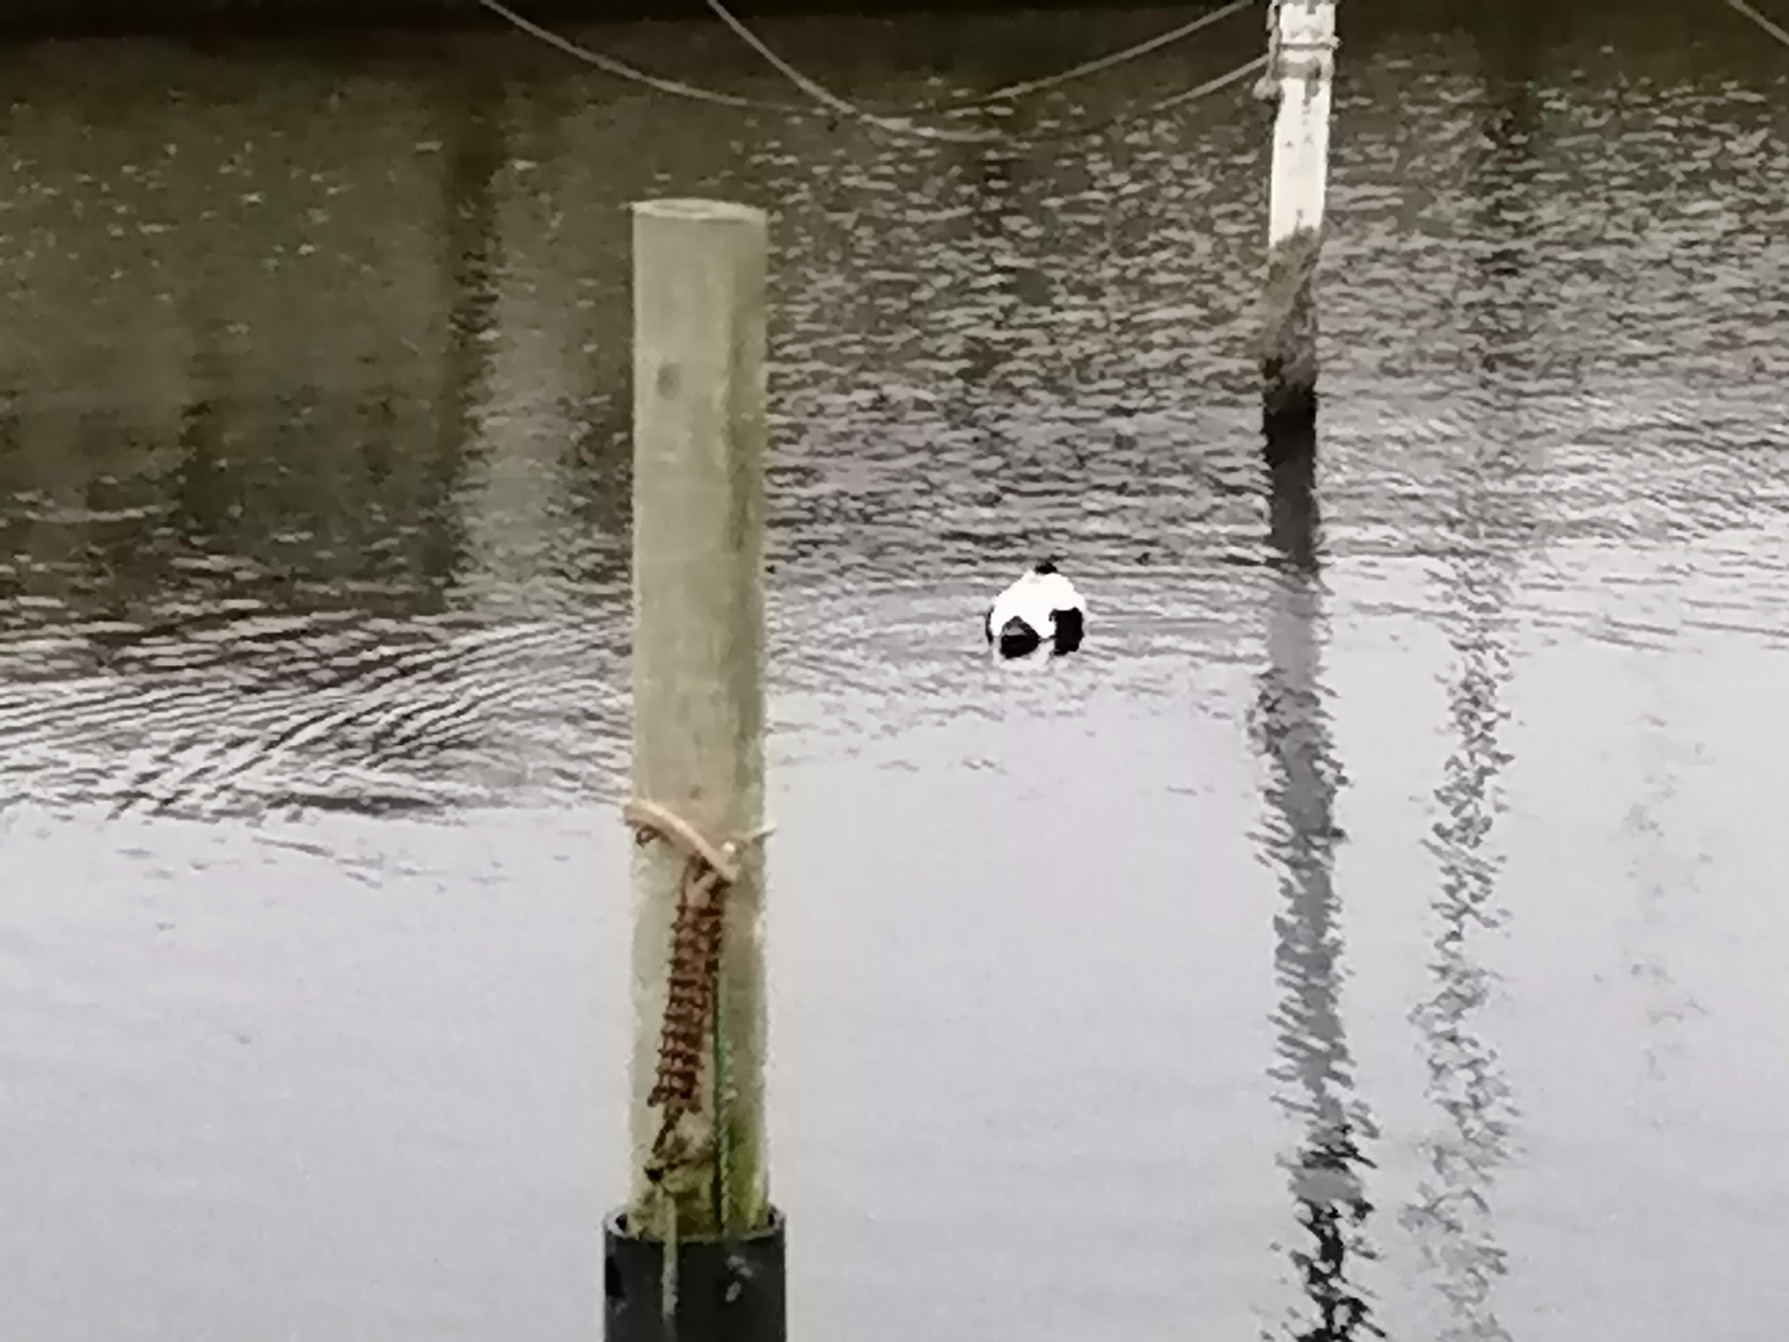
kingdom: Animalia
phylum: Chordata
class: Aves
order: Anseriformes
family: Anatidae
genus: Somateria
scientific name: Somateria mollissima
